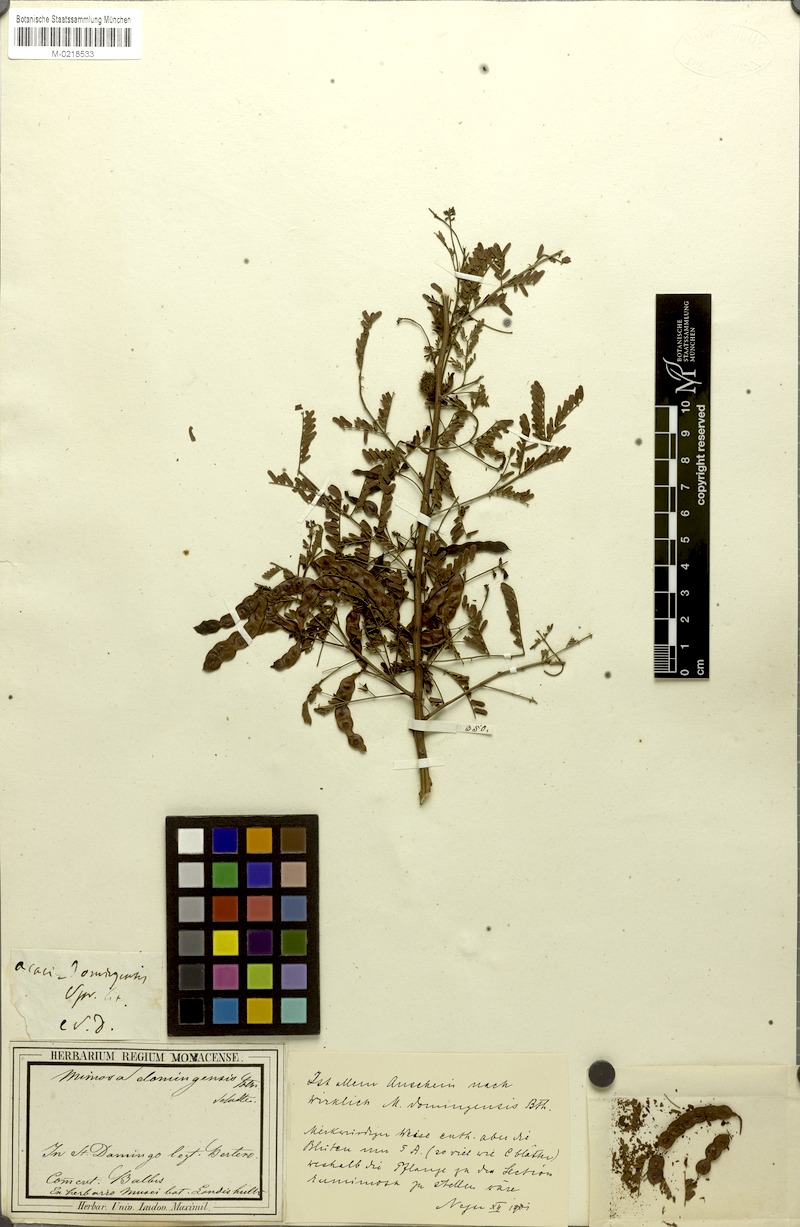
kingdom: Plantae
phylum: Tracheophyta
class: Magnoliopsida
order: Fabales
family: Fabaceae
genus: Mimosa
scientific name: Mimosa domingensis
